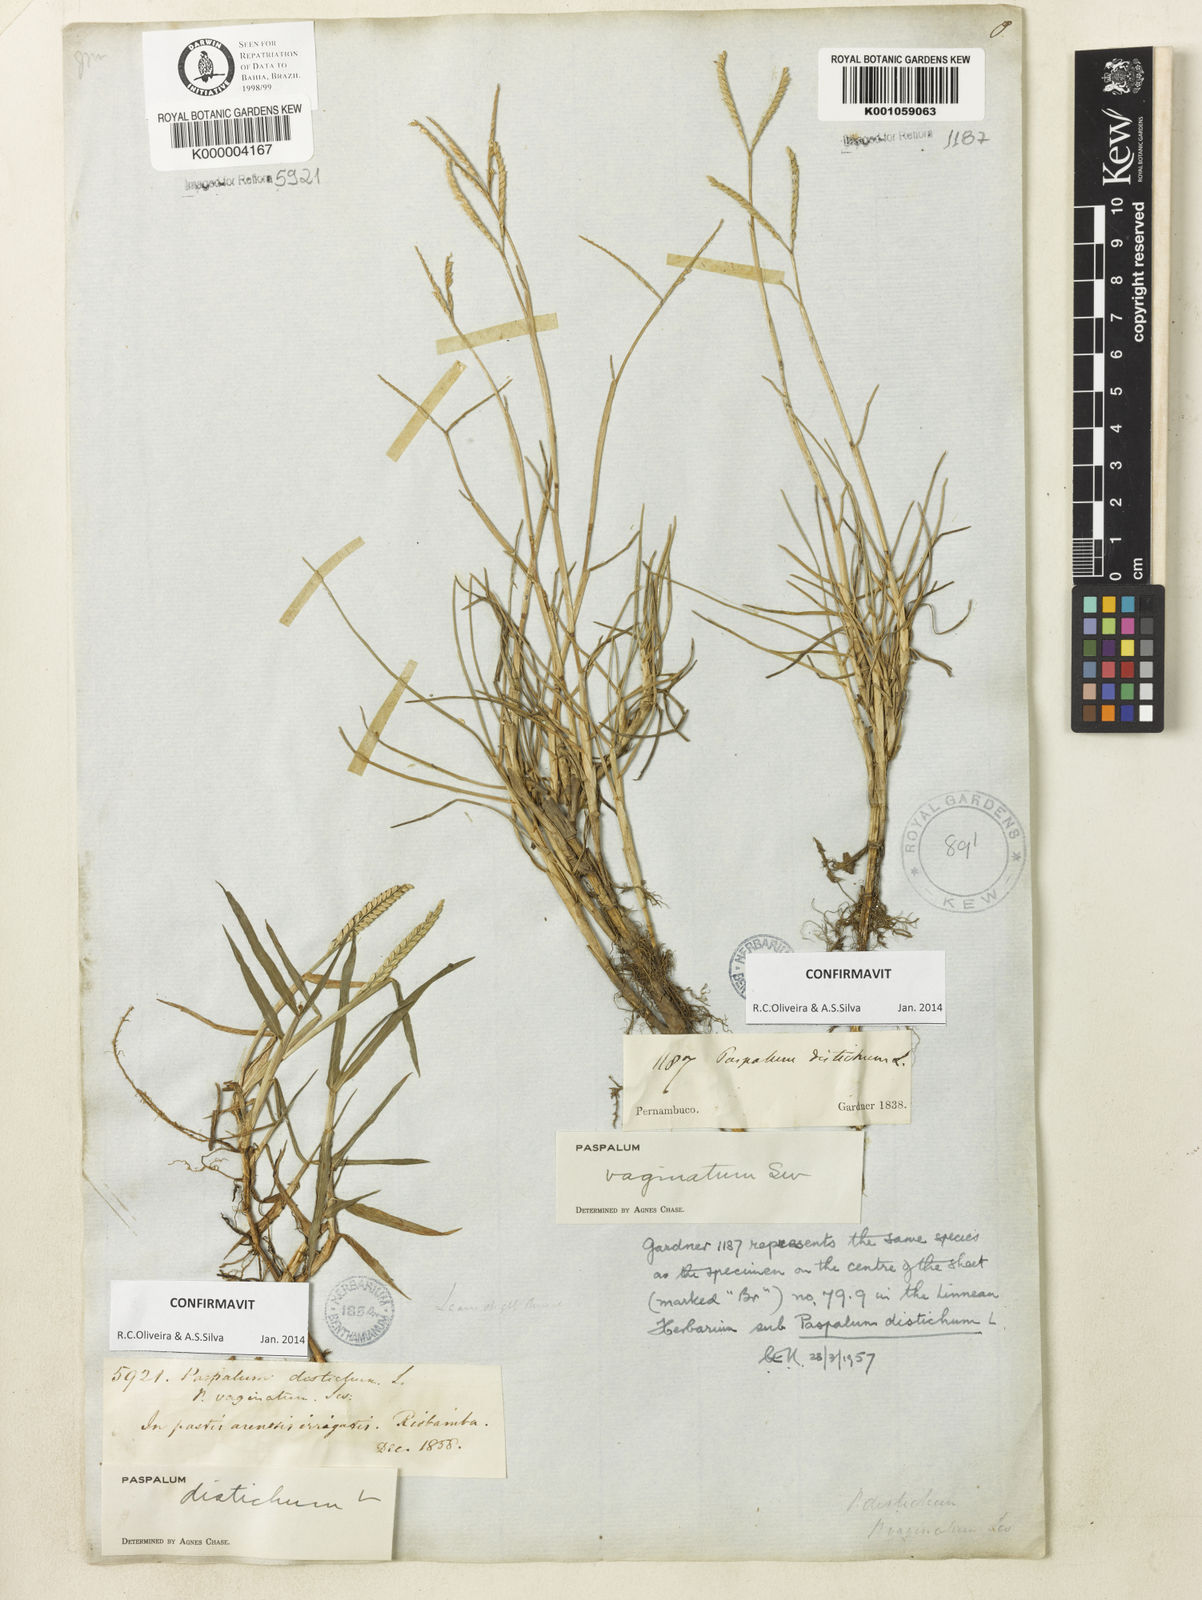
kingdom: Plantae
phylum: Tracheophyta
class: Liliopsida
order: Poales
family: Poaceae
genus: Paspalum
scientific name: Paspalum vaginatum
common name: Seashore paspalum
